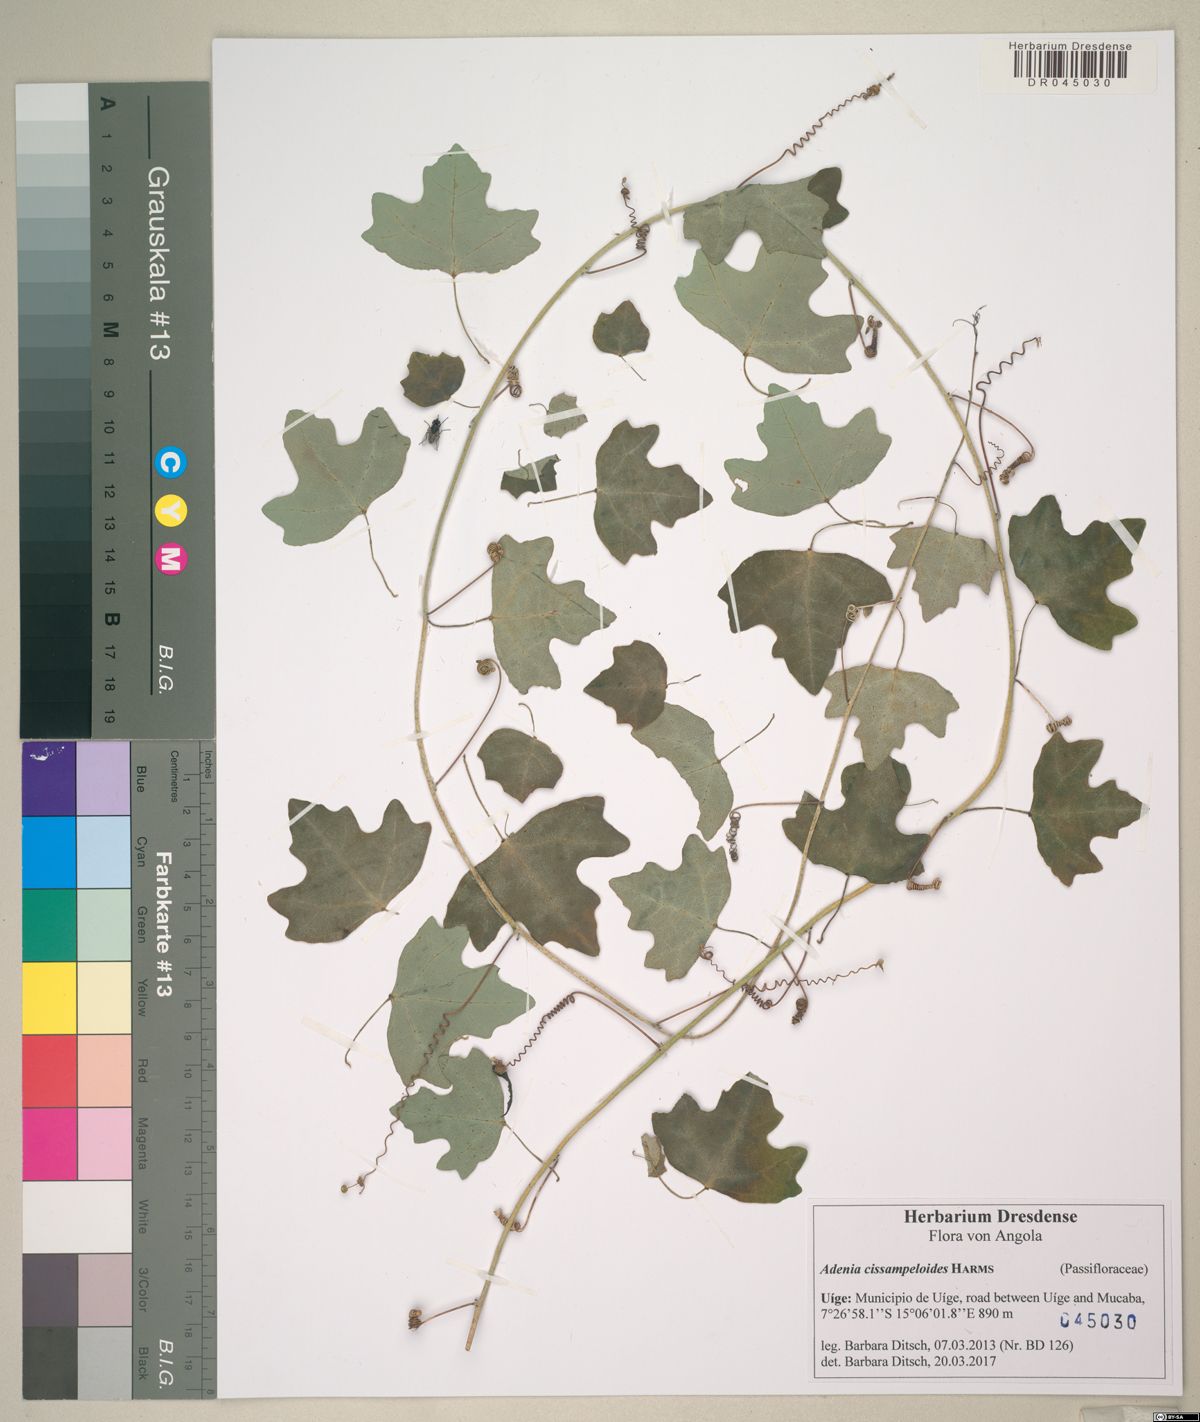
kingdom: Plantae
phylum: Tracheophyta
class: Magnoliopsida
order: Malpighiales
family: Passifloraceae
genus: Adenia
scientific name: Adenia cissampeloides
